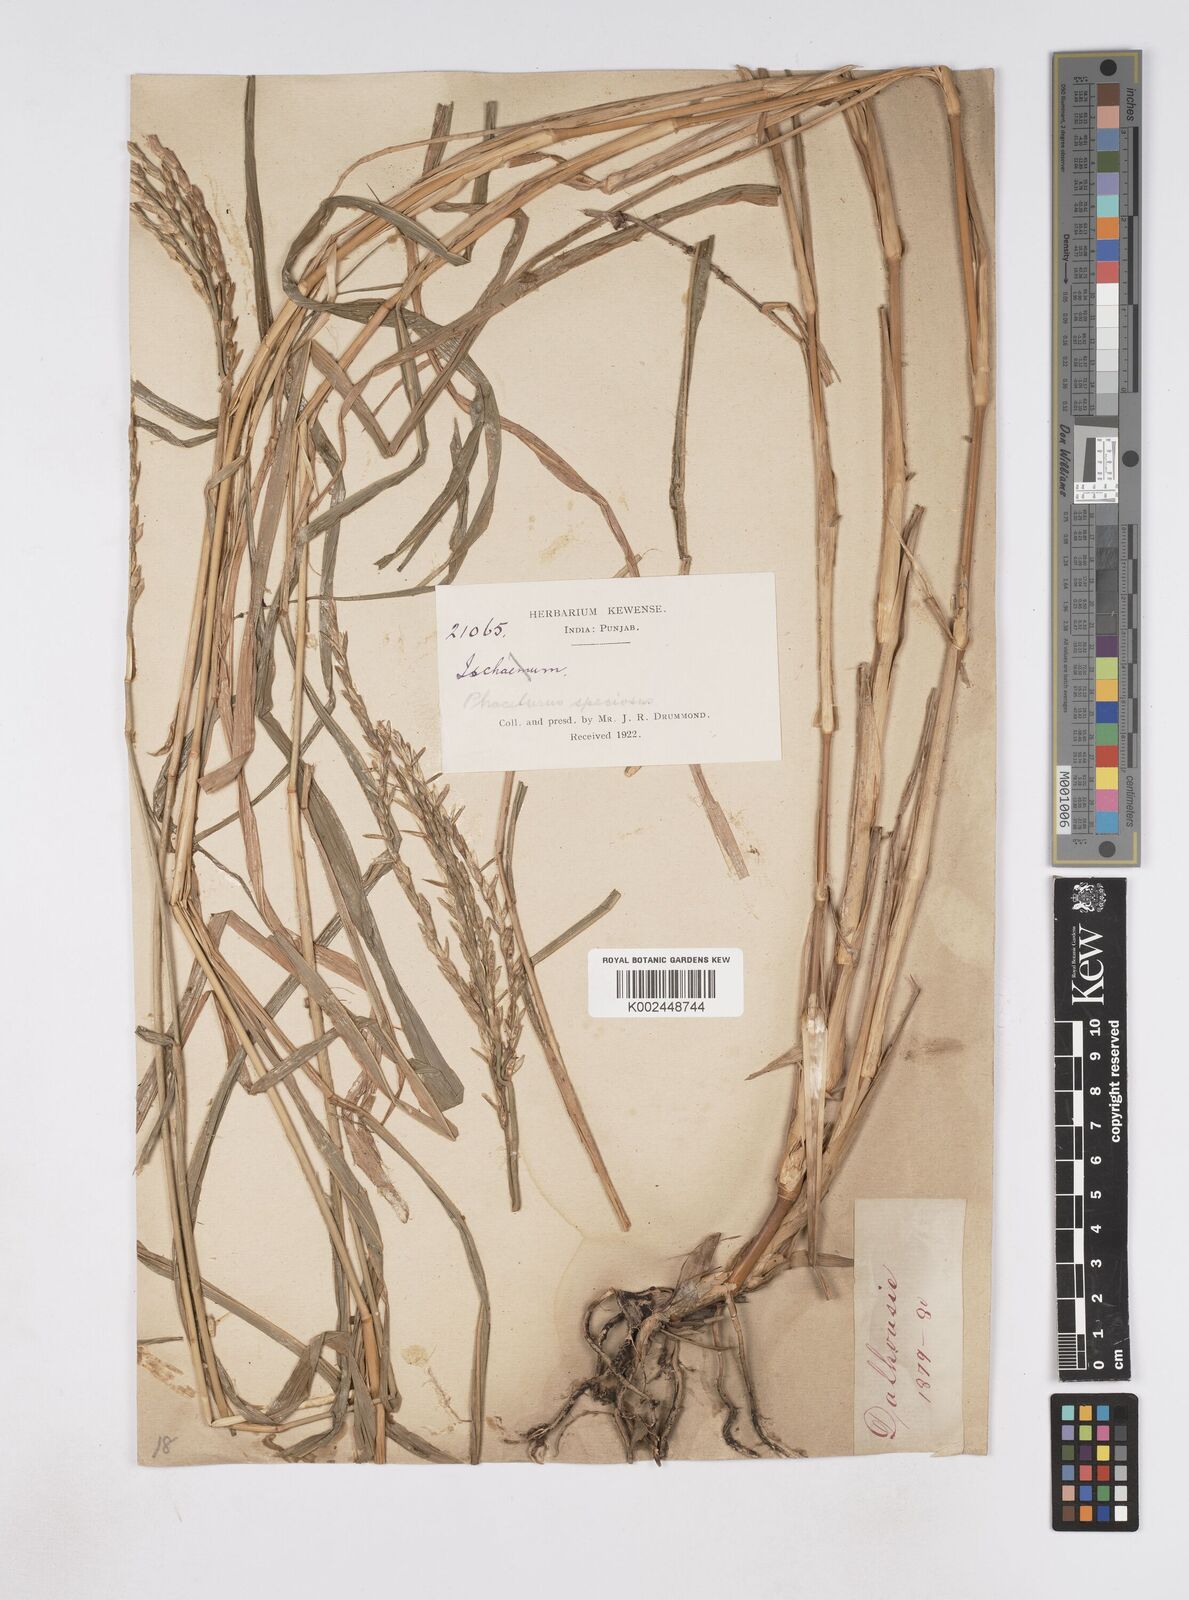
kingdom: Plantae
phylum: Tracheophyta
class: Liliopsida
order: Poales
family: Poaceae
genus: Phacelurus
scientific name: Phacelurus speciosus
